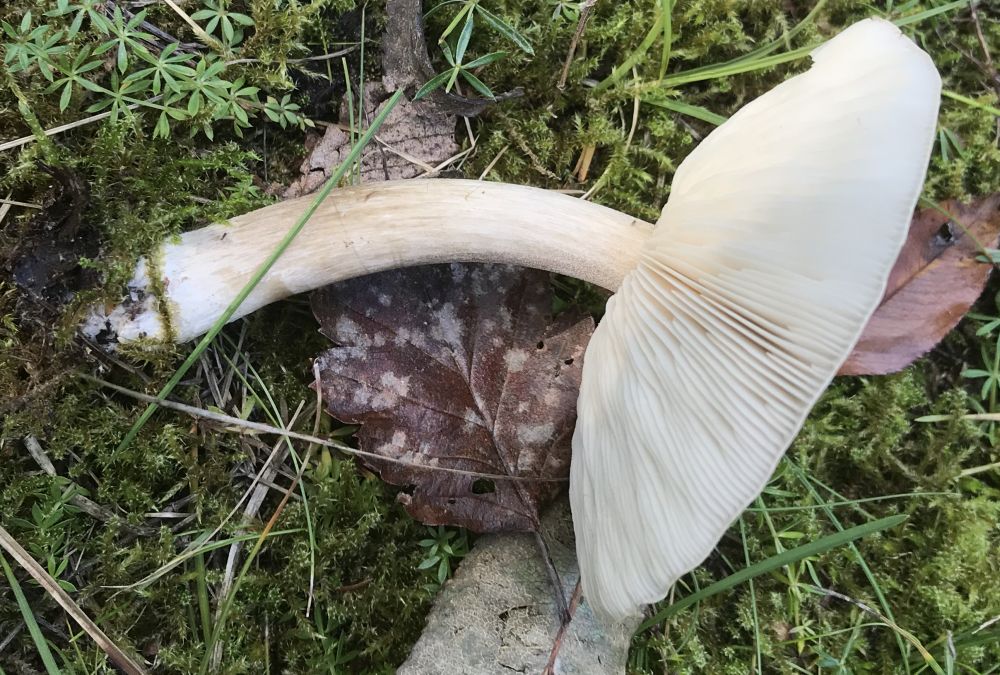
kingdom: Fungi
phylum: Basidiomycota
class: Agaricomycetes
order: Agaricales
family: Tricholomataceae
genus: Melanoleuca
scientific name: Melanoleuca
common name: munkehat
